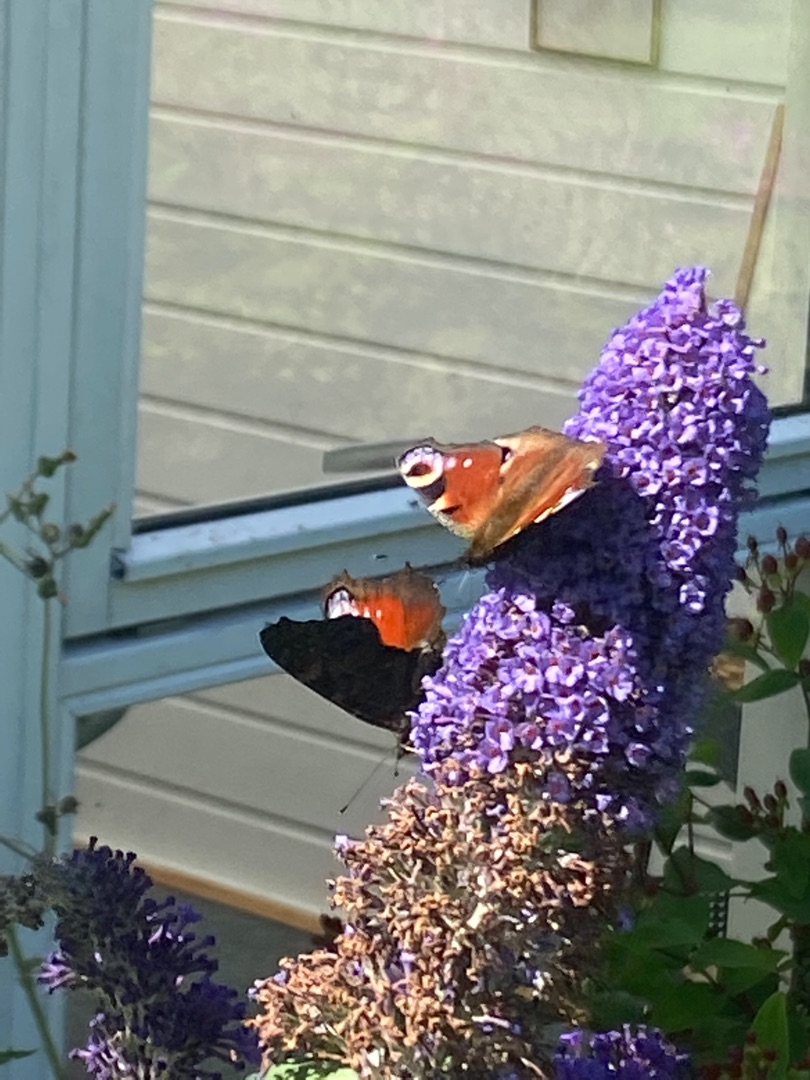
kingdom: Animalia
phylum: Arthropoda
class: Insecta
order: Lepidoptera
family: Nymphalidae
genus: Aglais
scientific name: Aglais io
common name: Dagpåfugleøje
